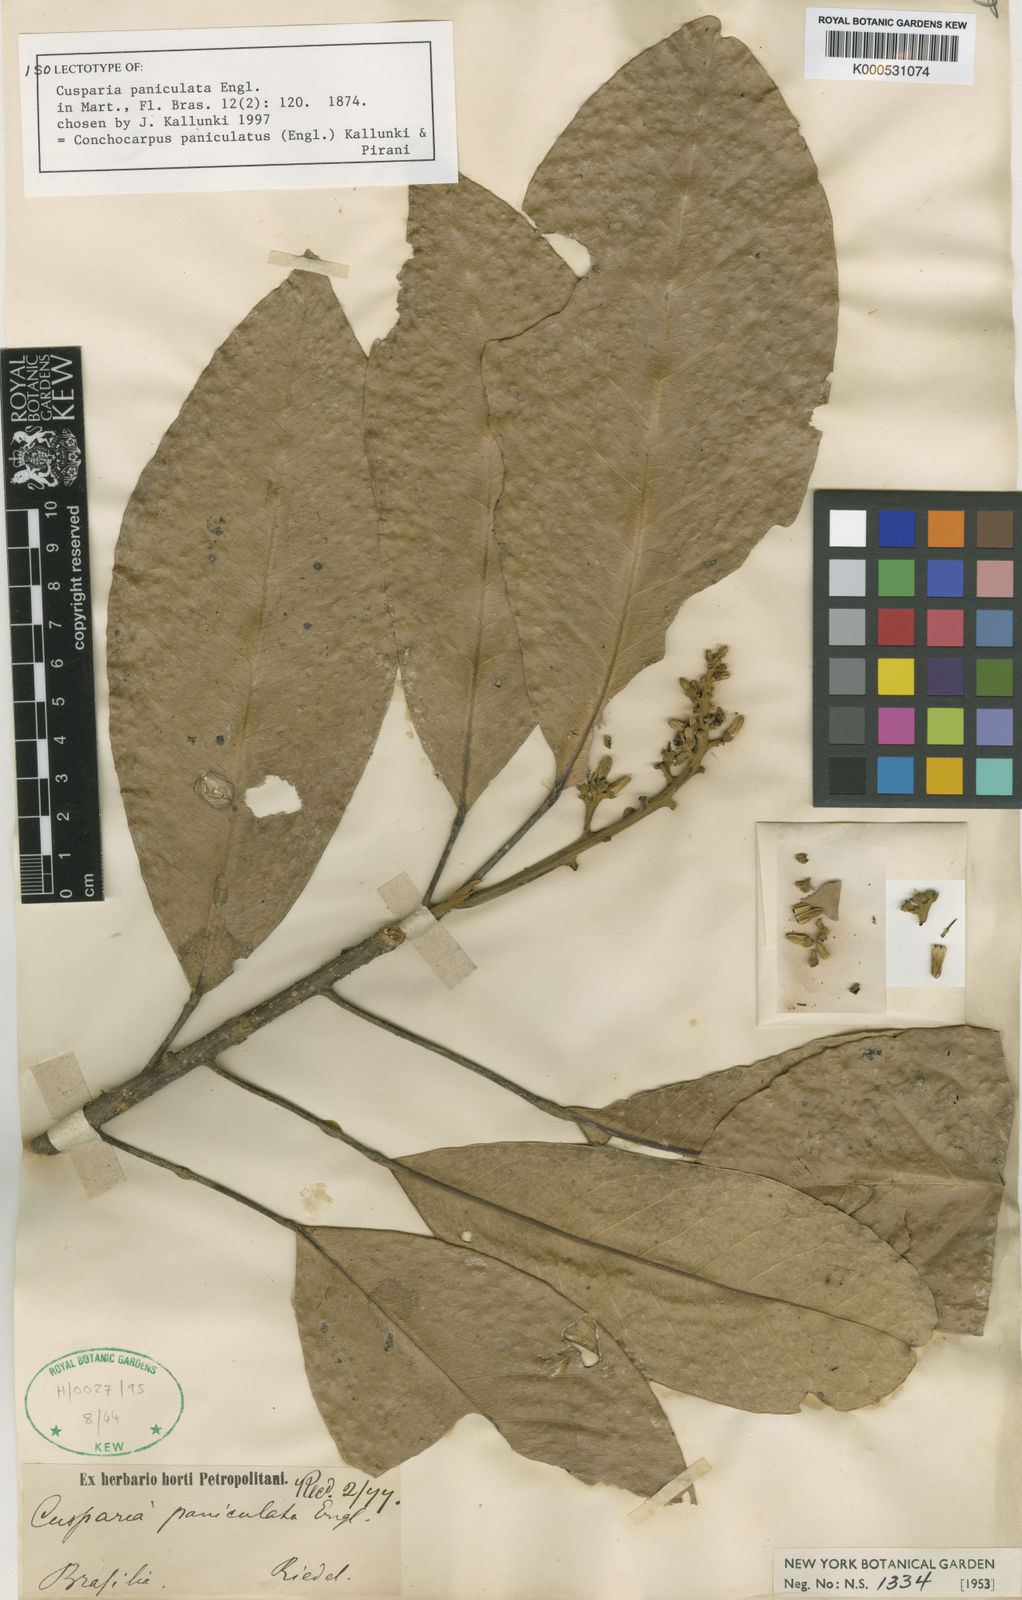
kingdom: Plantae
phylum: Tracheophyta
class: Magnoliopsida
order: Sapindales
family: Rutaceae
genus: Conchocarpus
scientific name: Conchocarpus paniculatus
